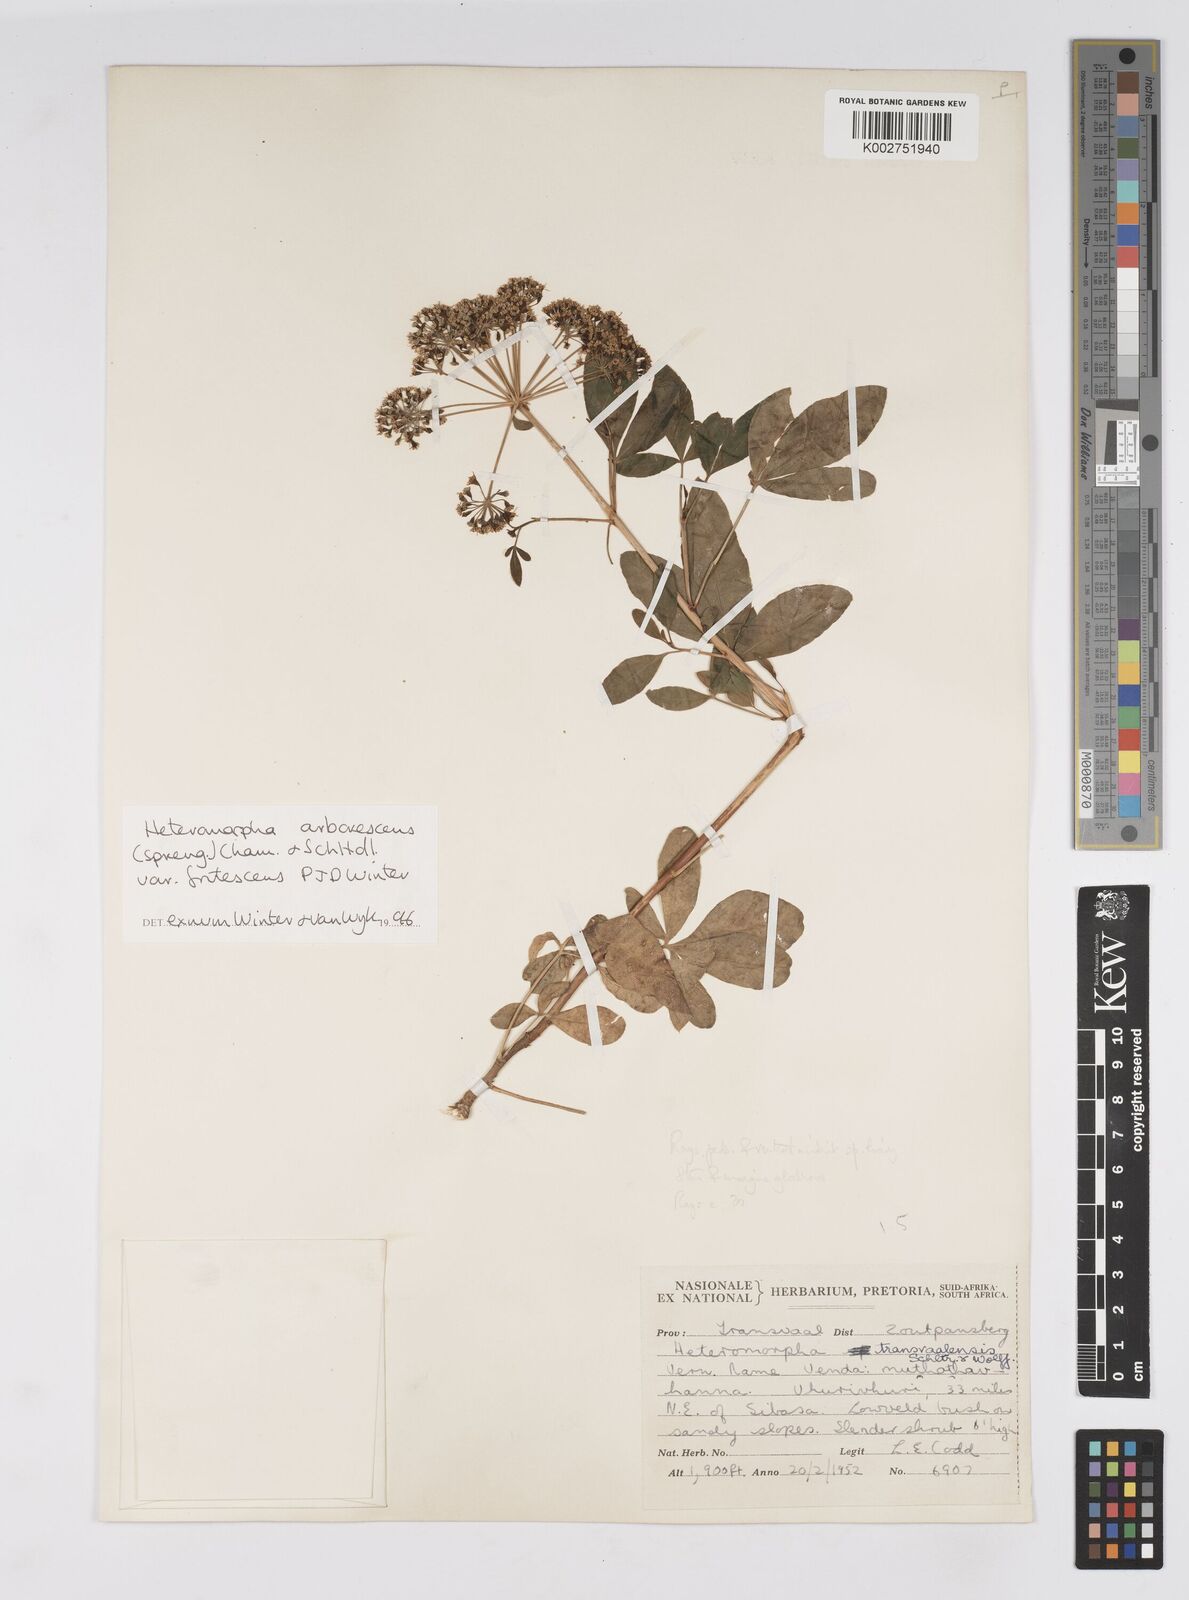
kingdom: Plantae
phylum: Tracheophyta
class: Magnoliopsida
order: Apiales
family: Apiaceae
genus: Heteromorpha
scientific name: Heteromorpha arborescens
